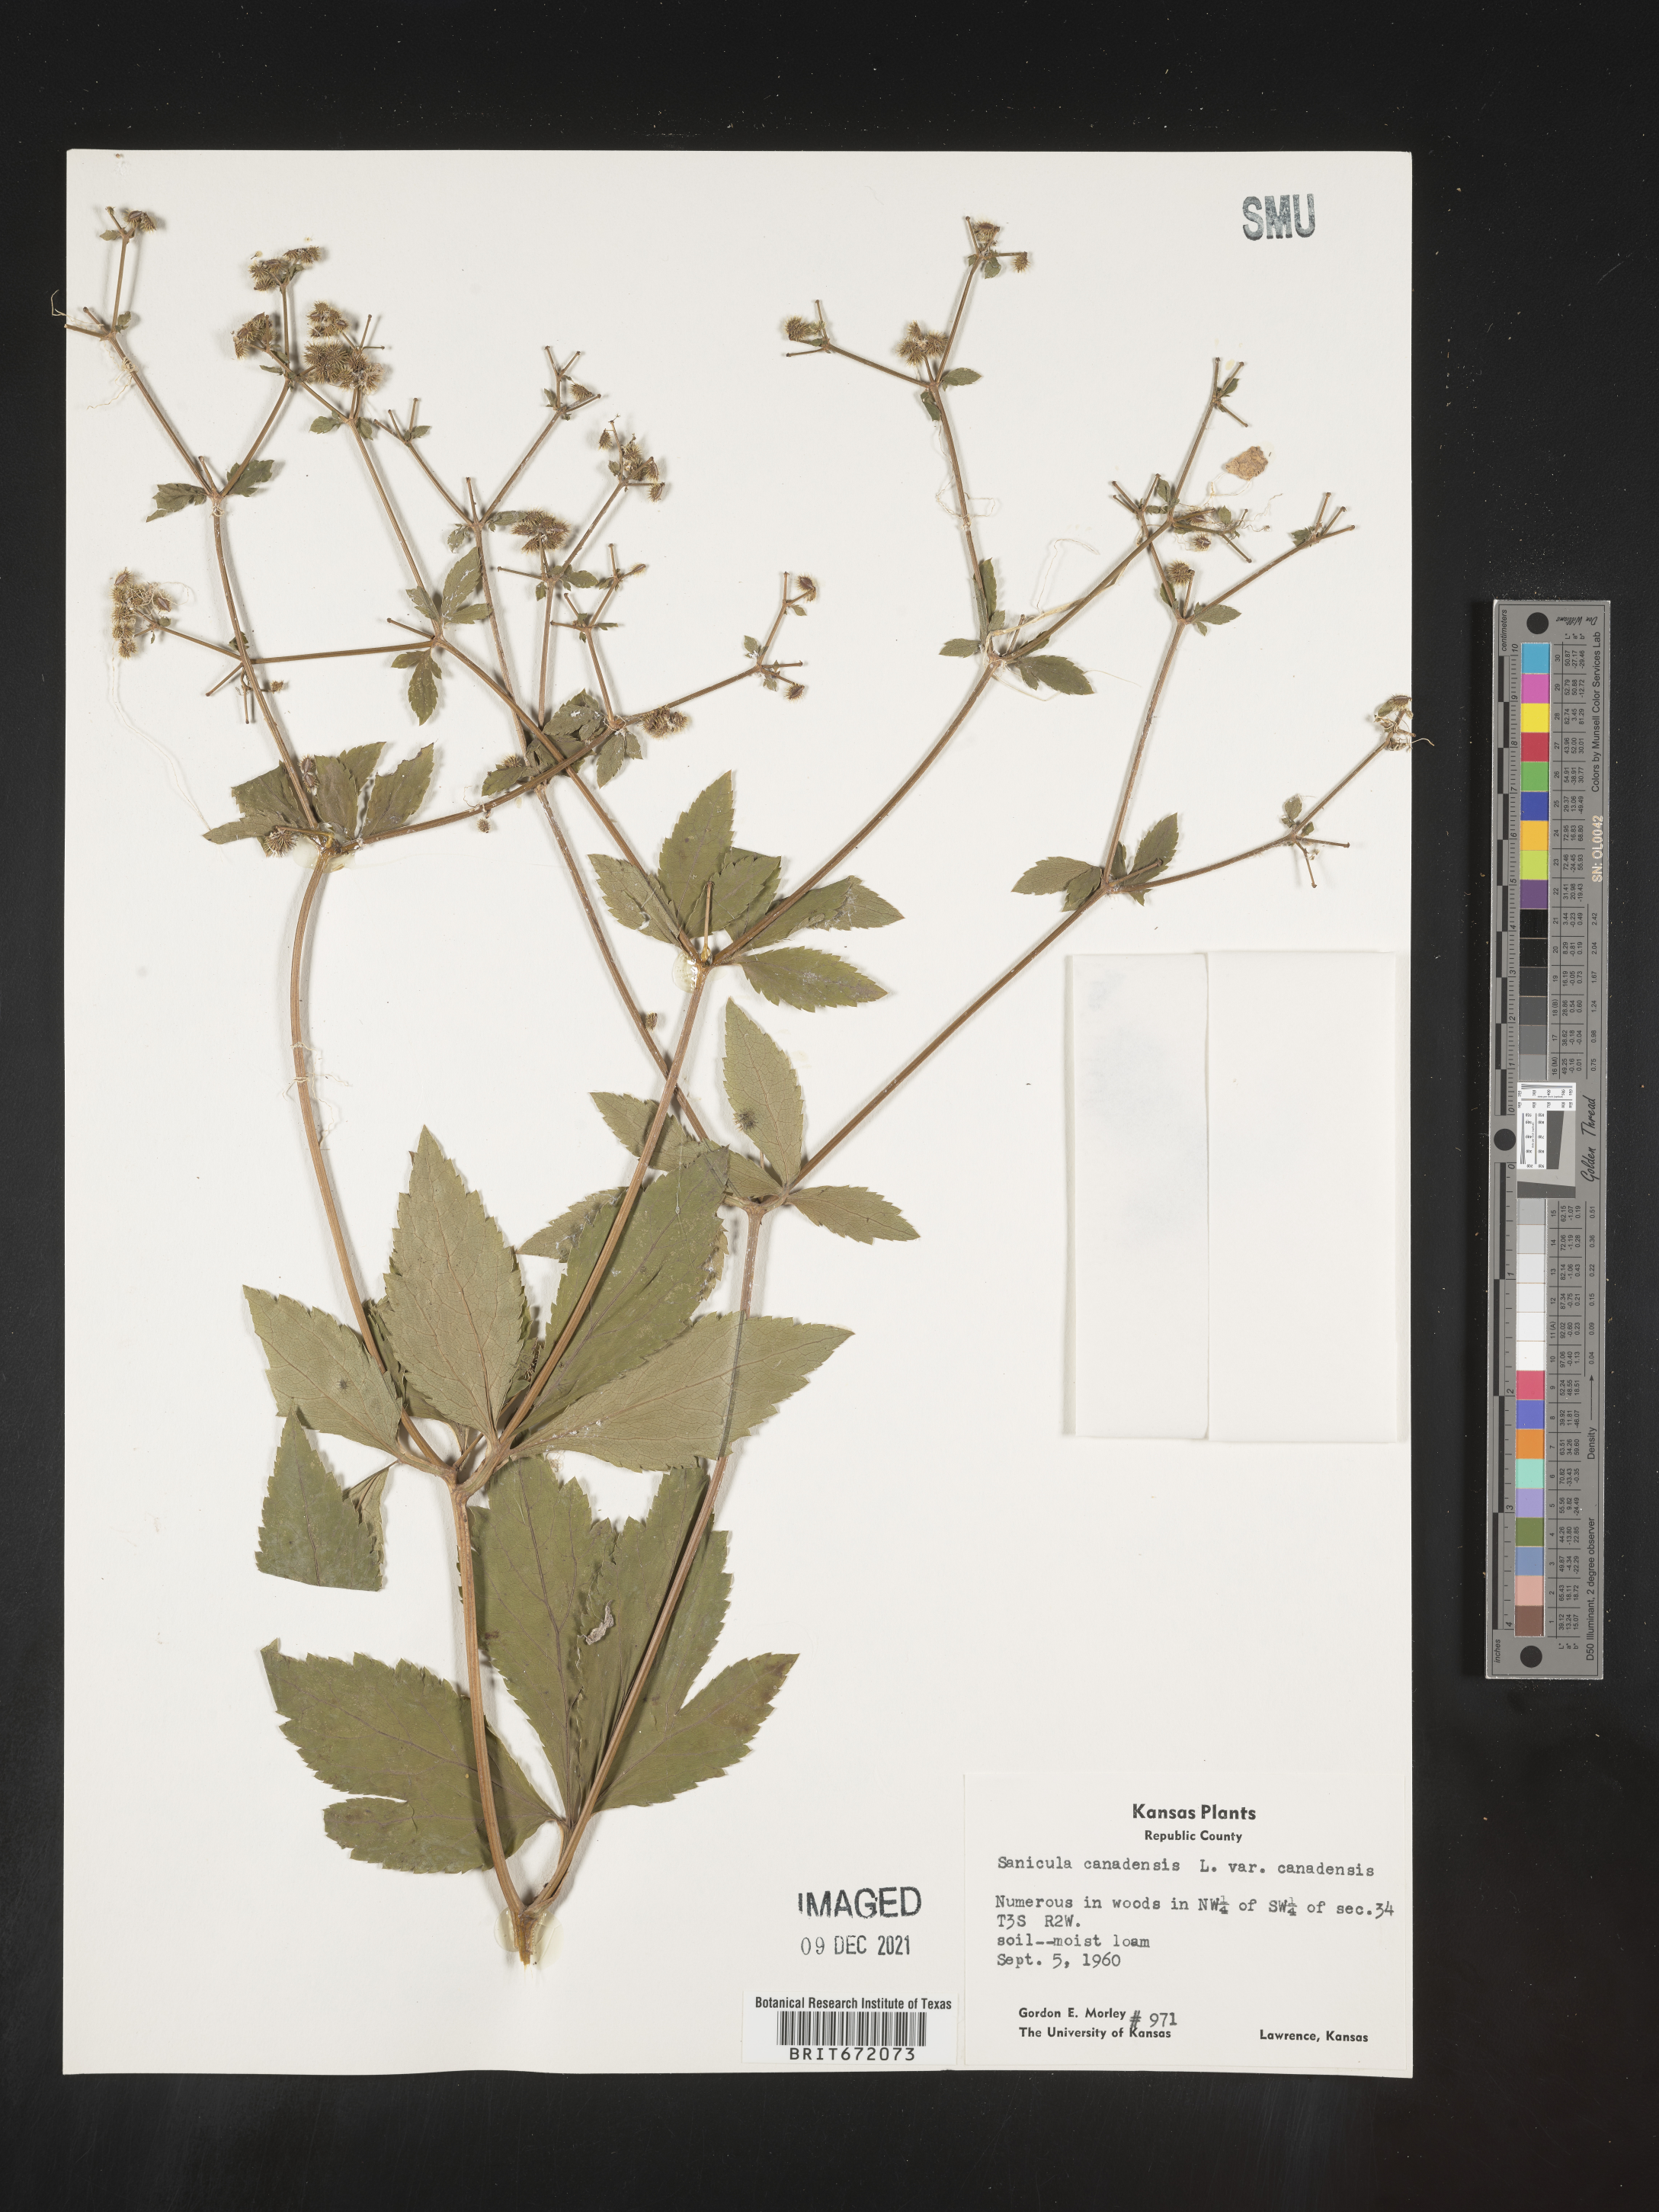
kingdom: Plantae
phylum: Tracheophyta
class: Magnoliopsida
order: Apiales
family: Apiaceae
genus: Sanicula
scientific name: Sanicula canadensis
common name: Canada sanicle
